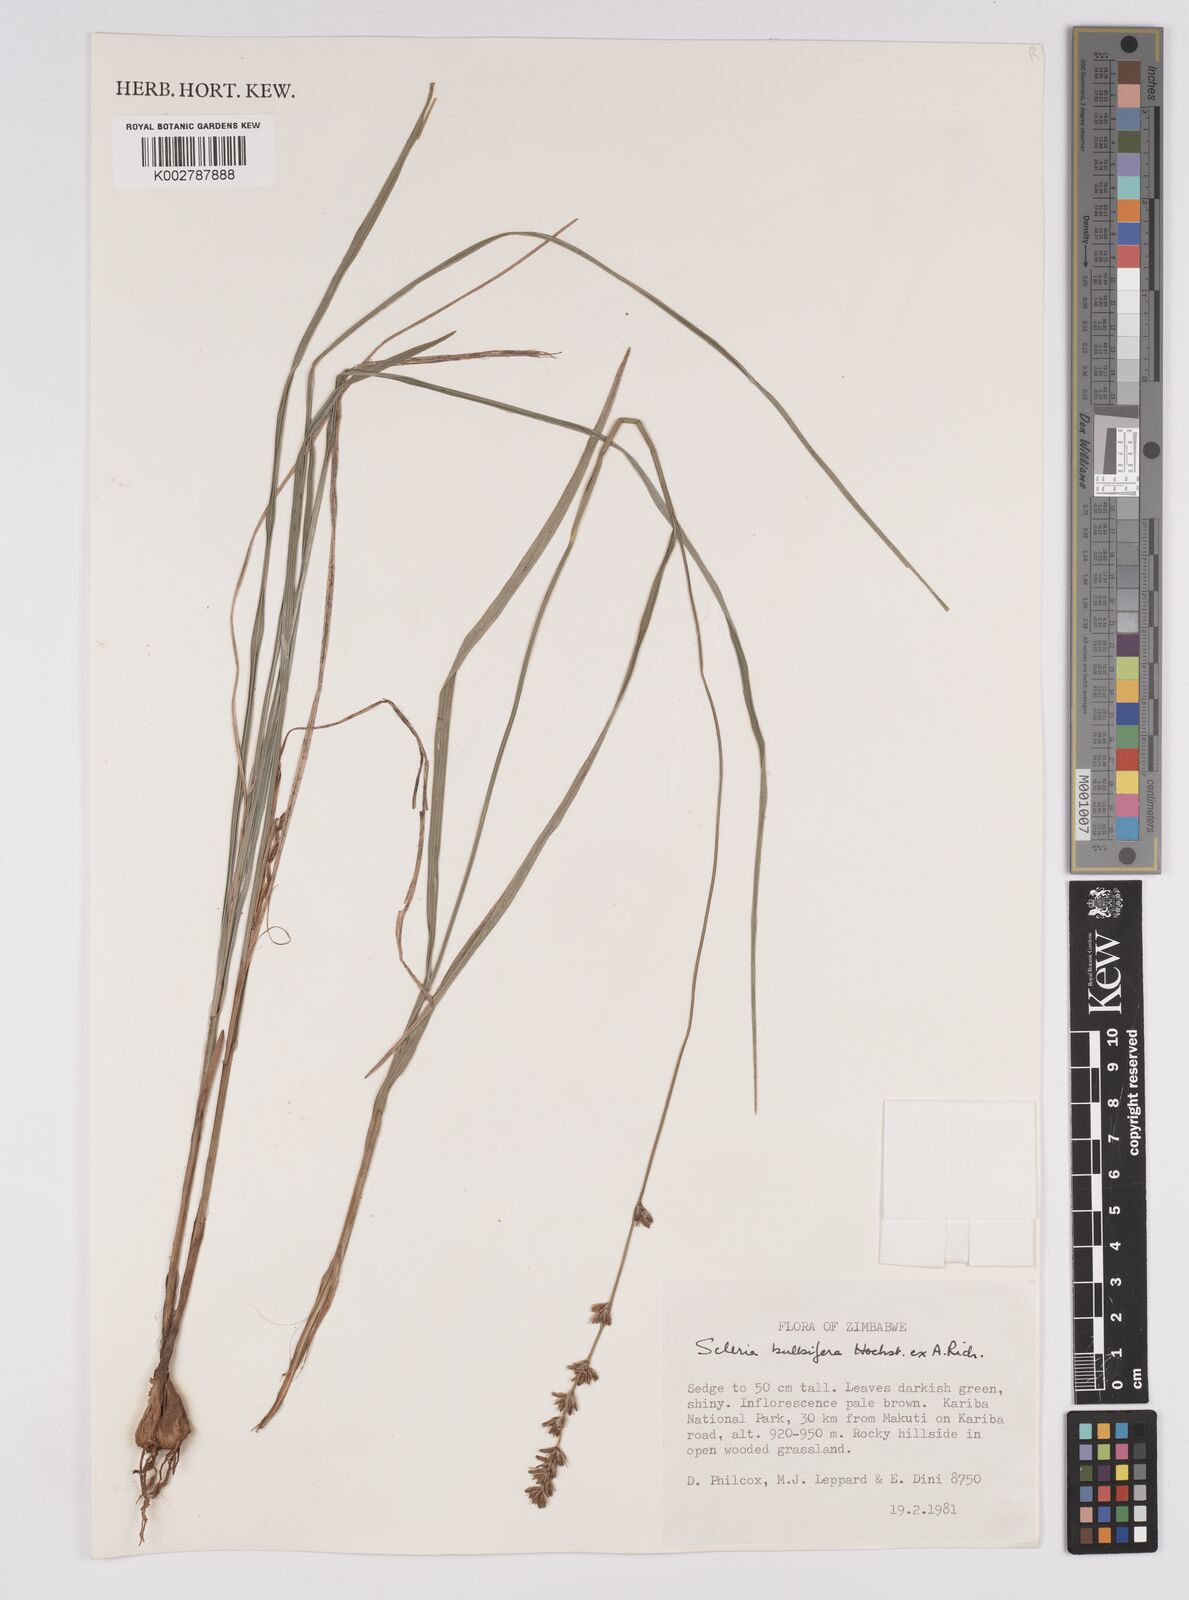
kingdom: Plantae
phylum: Tracheophyta
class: Liliopsida
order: Poales
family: Cyperaceae
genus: Scleria
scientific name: Scleria bulbifera
